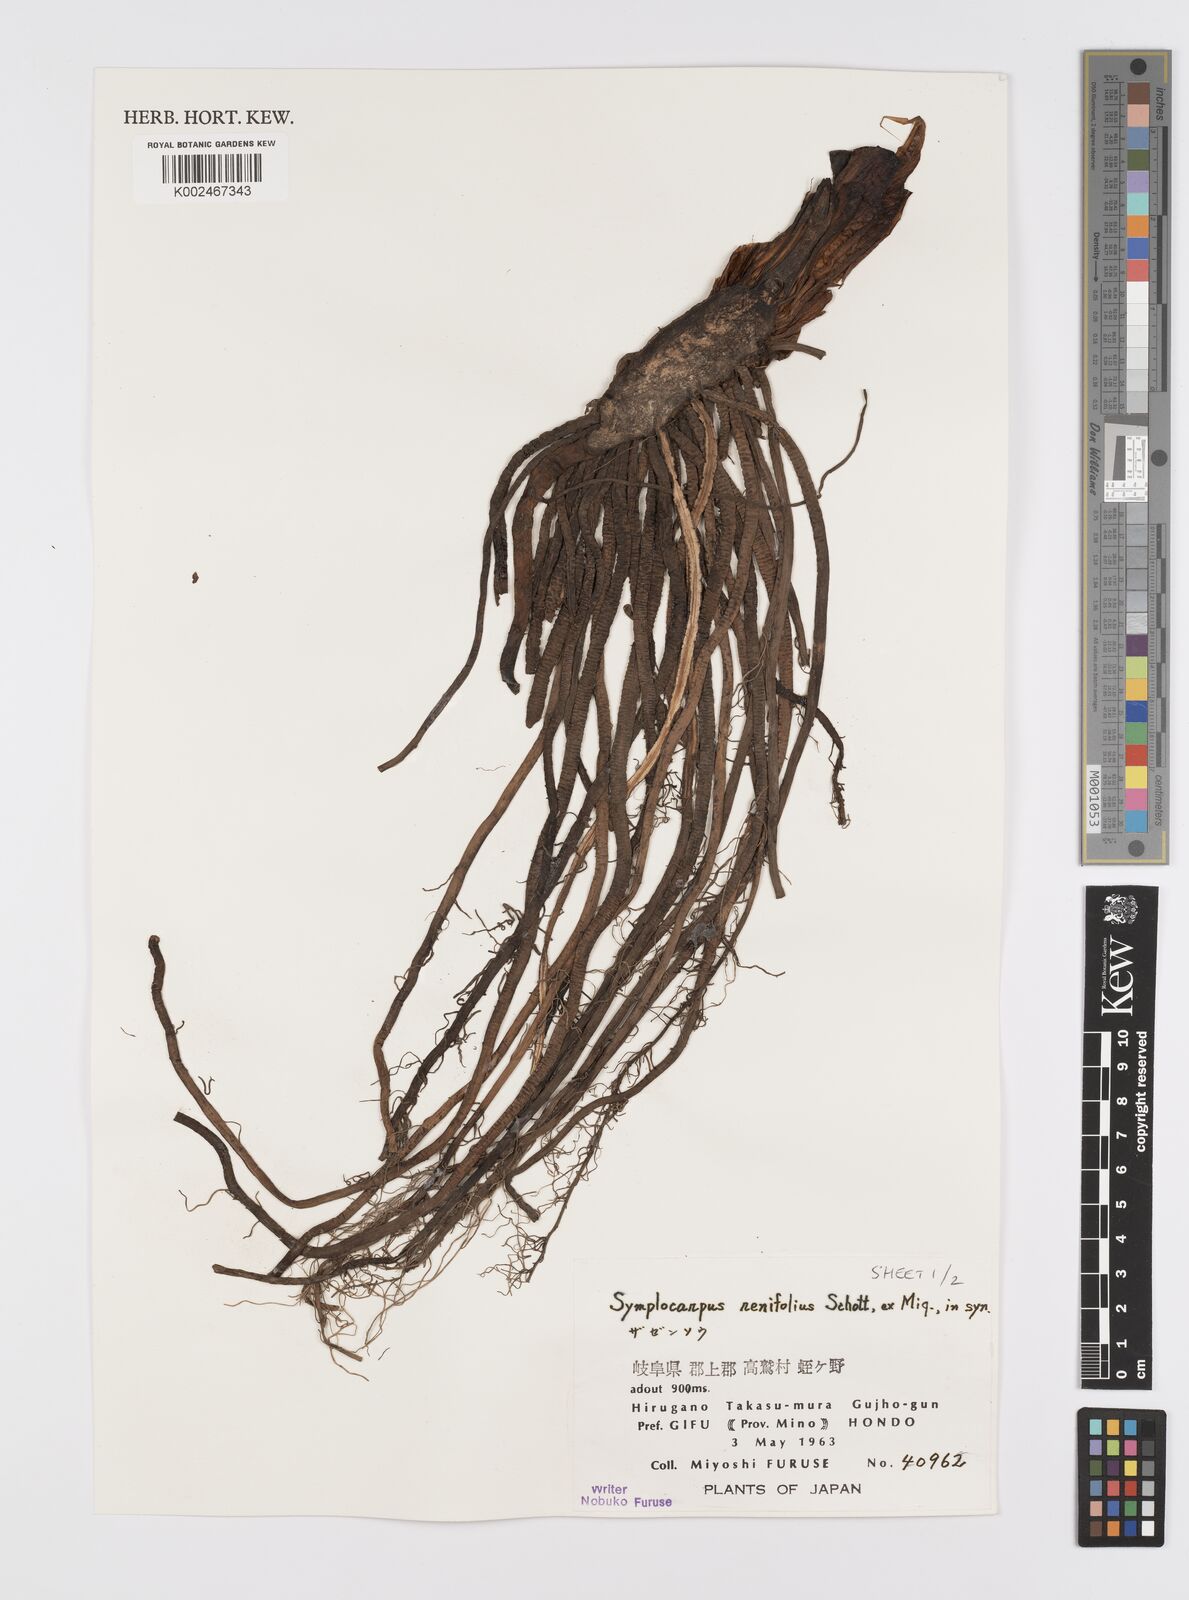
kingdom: Plantae
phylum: Tracheophyta
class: Liliopsida
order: Alismatales
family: Araceae
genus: Symplocarpus
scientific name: Symplocarpus renifolius
